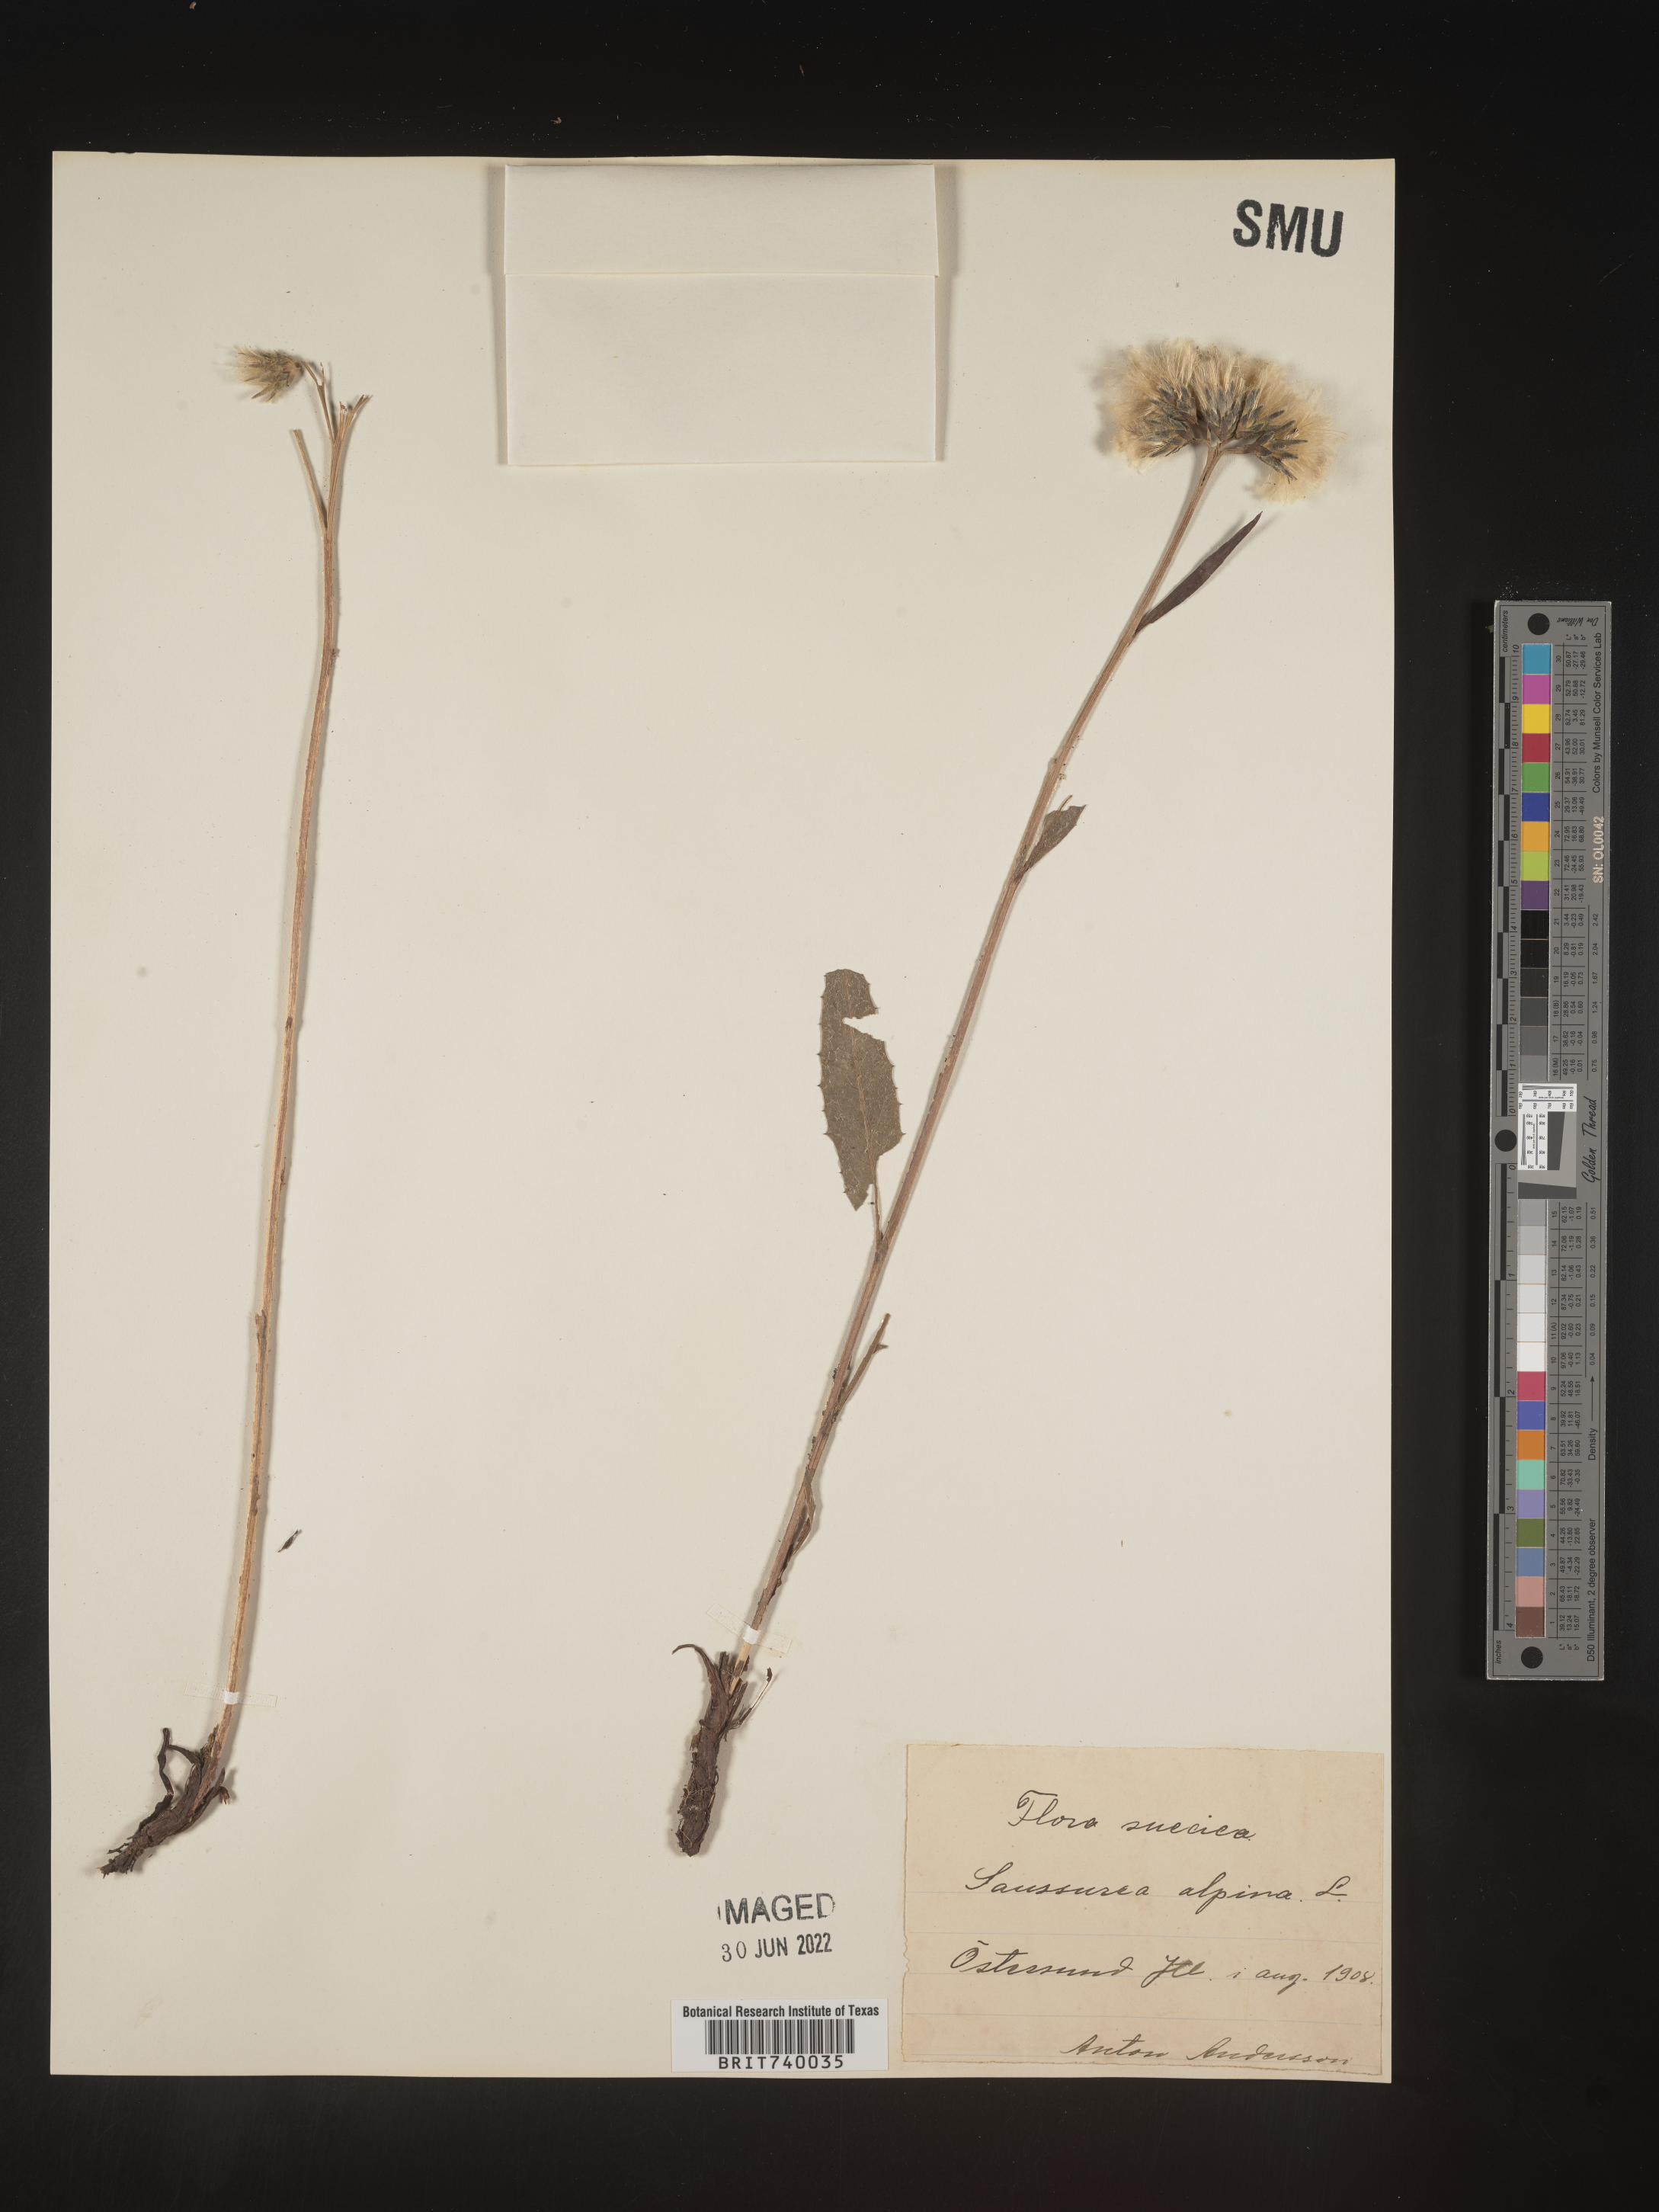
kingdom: Plantae
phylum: Tracheophyta
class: Magnoliopsida
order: Asterales
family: Asteraceae
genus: Saussurea
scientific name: Saussurea
